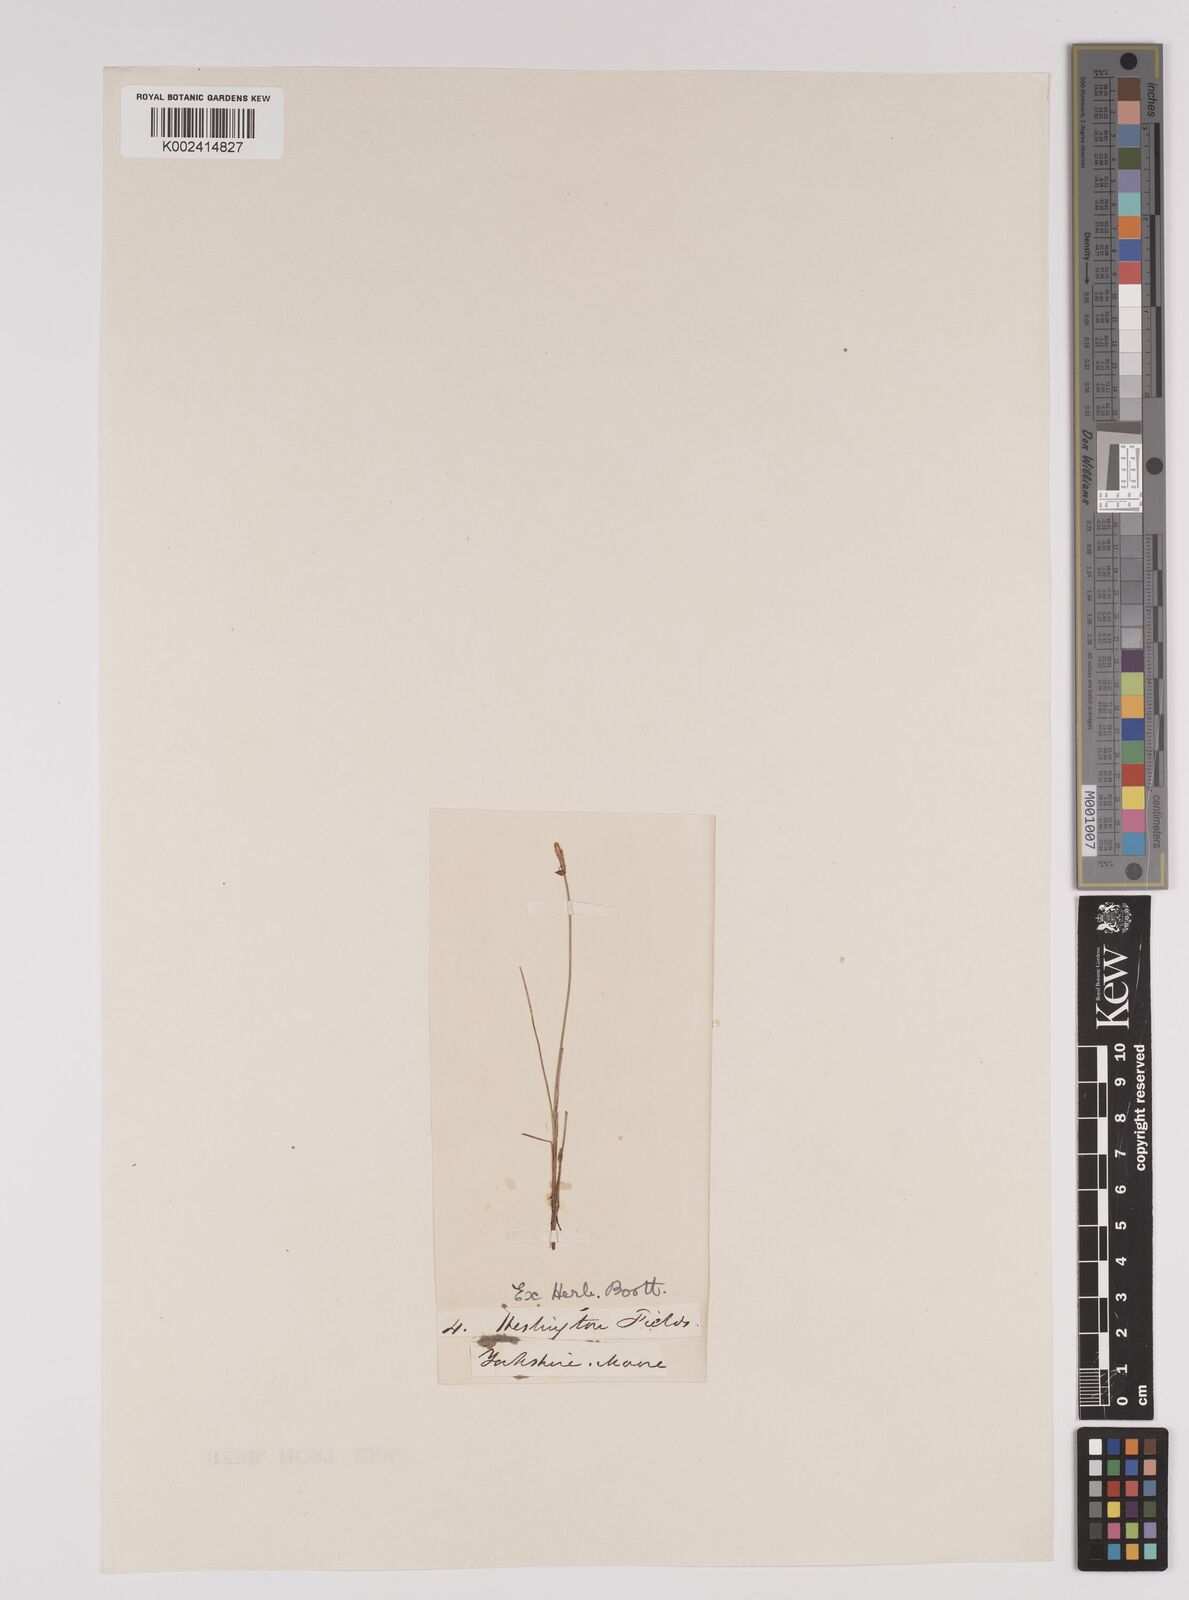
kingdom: Plantae
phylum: Tracheophyta
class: Liliopsida
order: Poales
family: Cyperaceae
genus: Carex
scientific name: Carex dioica
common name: Dioecious sedge
